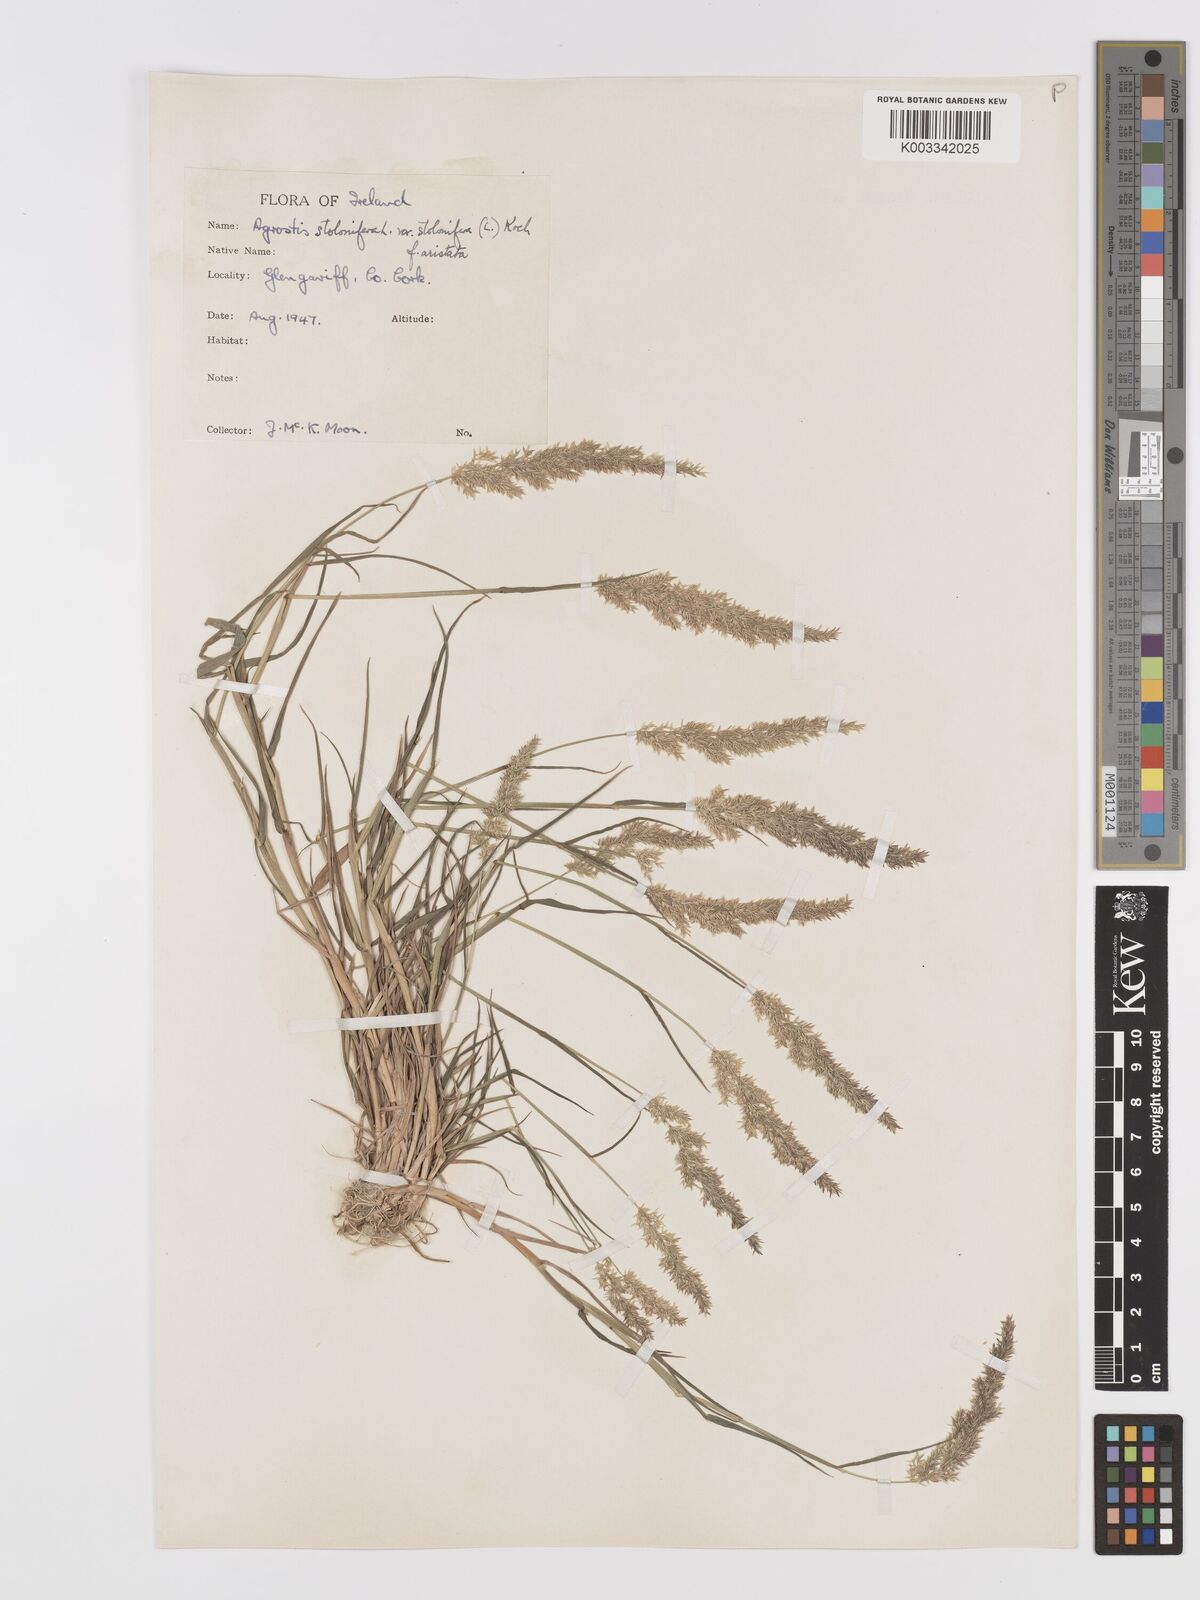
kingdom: Plantae
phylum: Tracheophyta
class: Liliopsida
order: Poales
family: Poaceae
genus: Agrostis
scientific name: Agrostis stolonifera
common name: Creeping bentgrass
